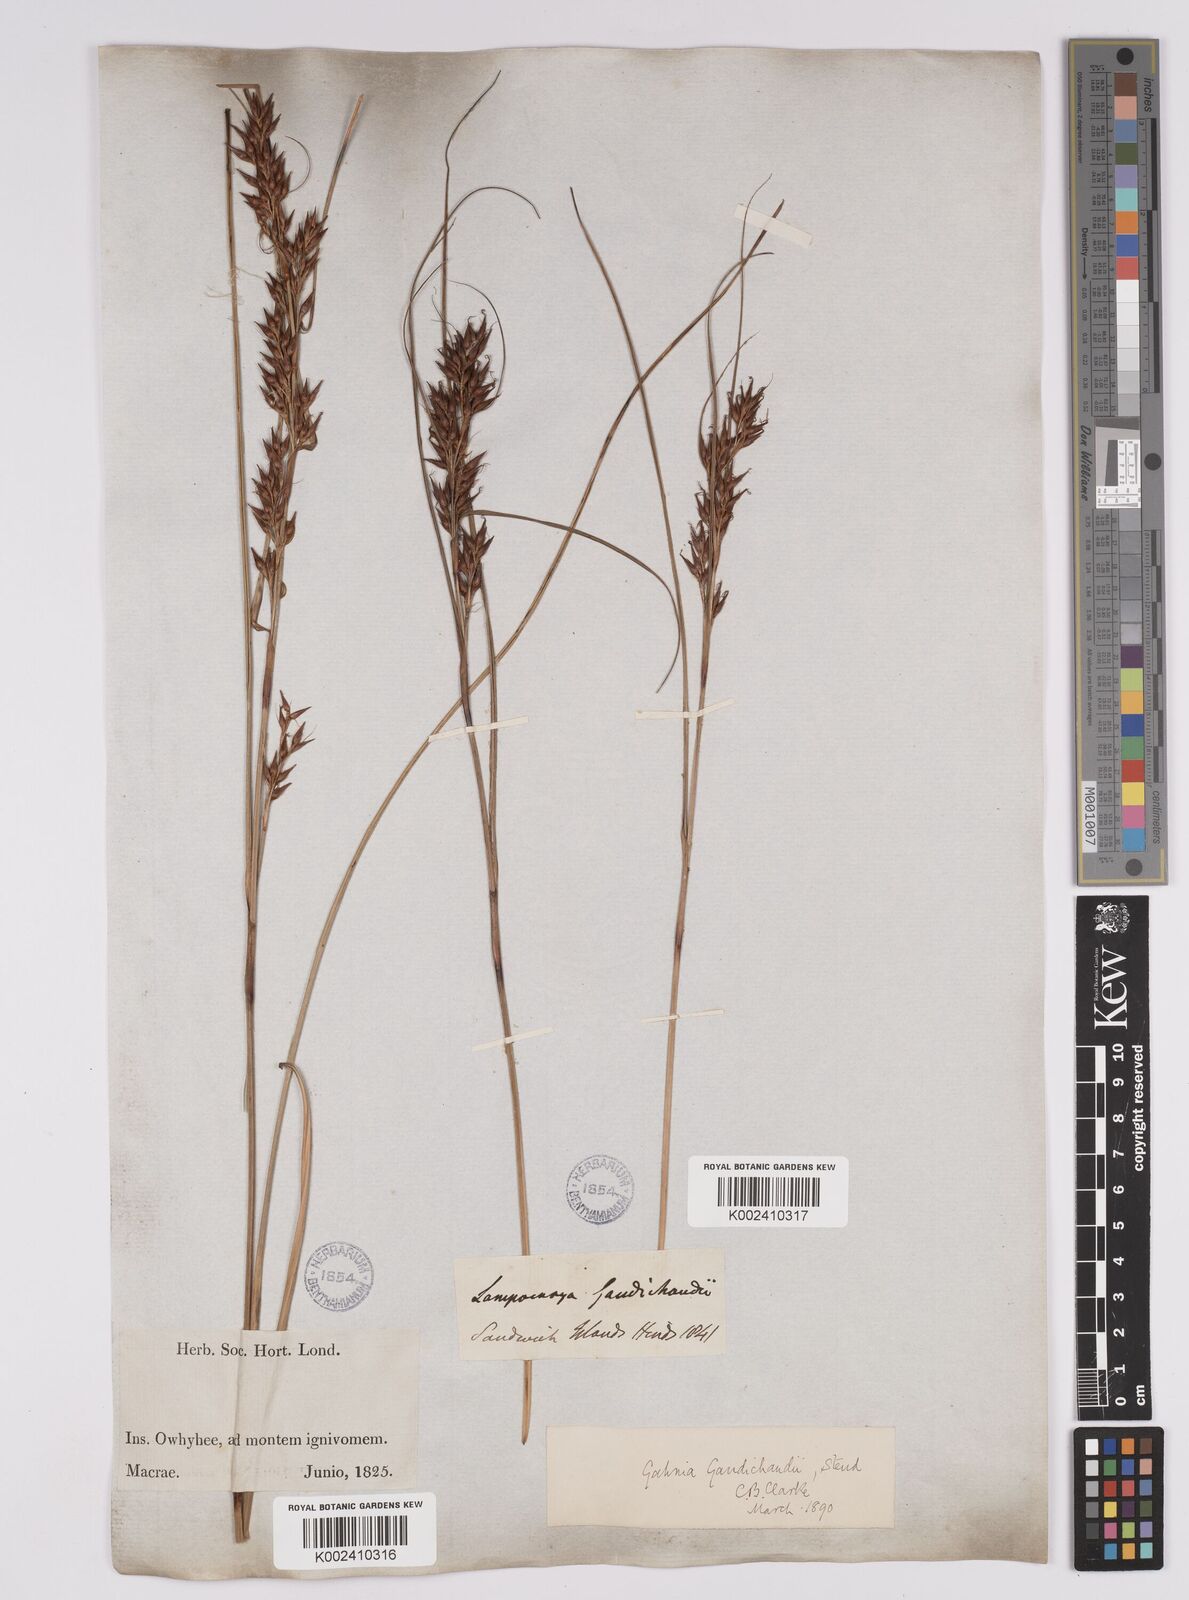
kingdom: Plantae
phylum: Tracheophyta
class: Liliopsida
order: Poales
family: Cyperaceae
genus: Morelotia
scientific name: Morelotia gahniiformis
